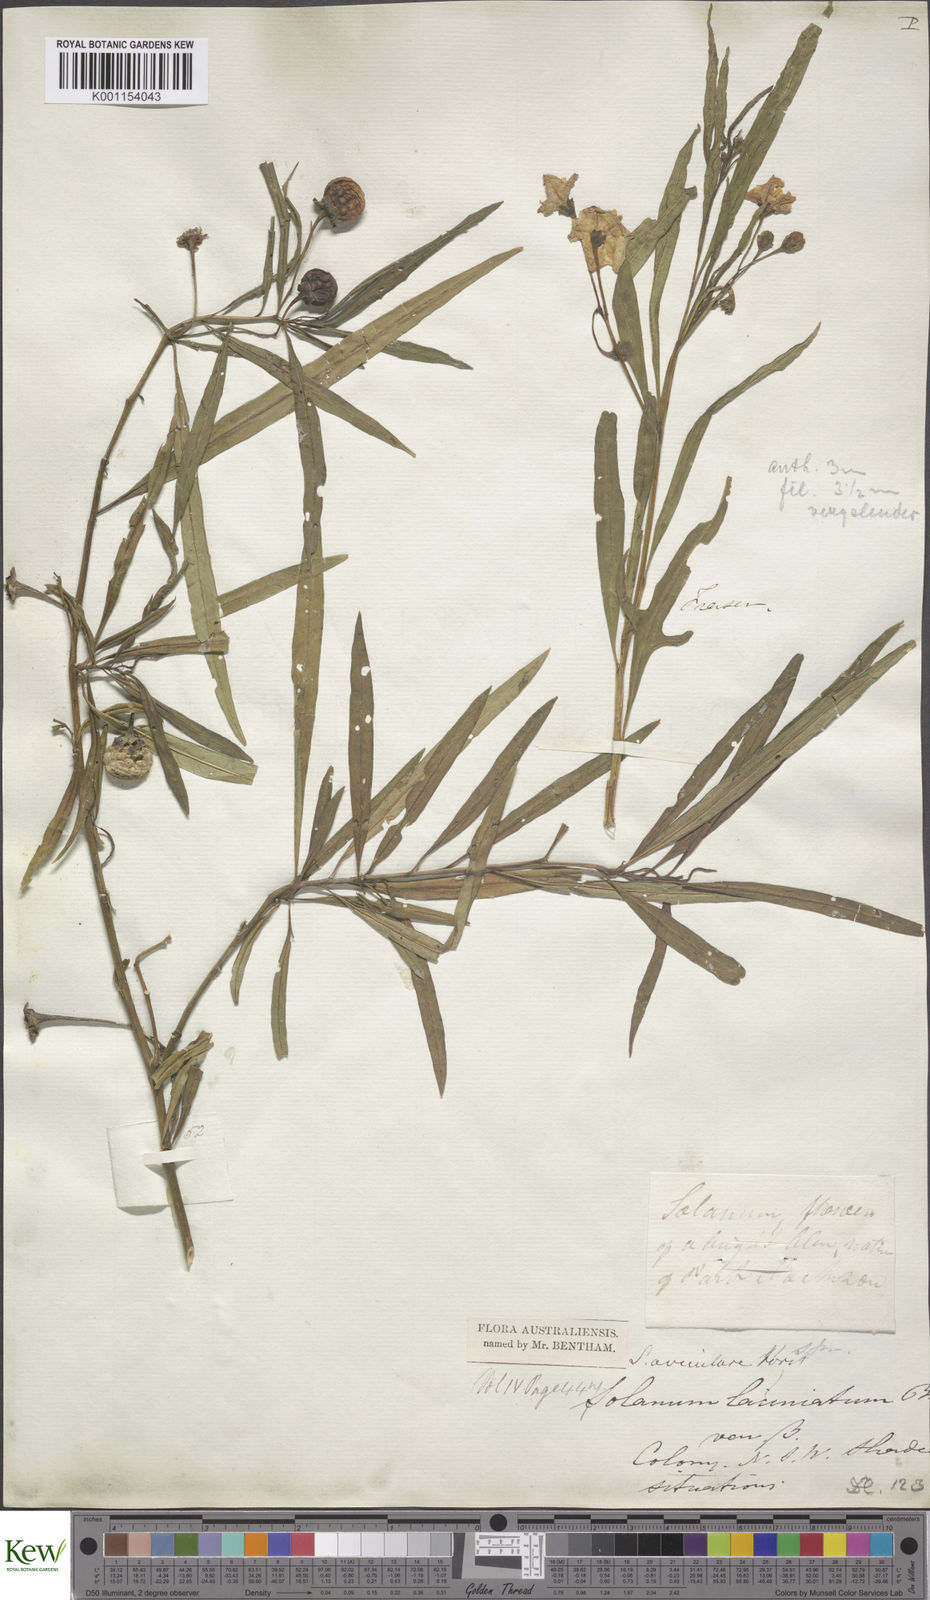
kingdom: Plantae
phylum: Tracheophyta
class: Magnoliopsida
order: Solanales
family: Solanaceae
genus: Solanum
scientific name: Solanum linearifolium
